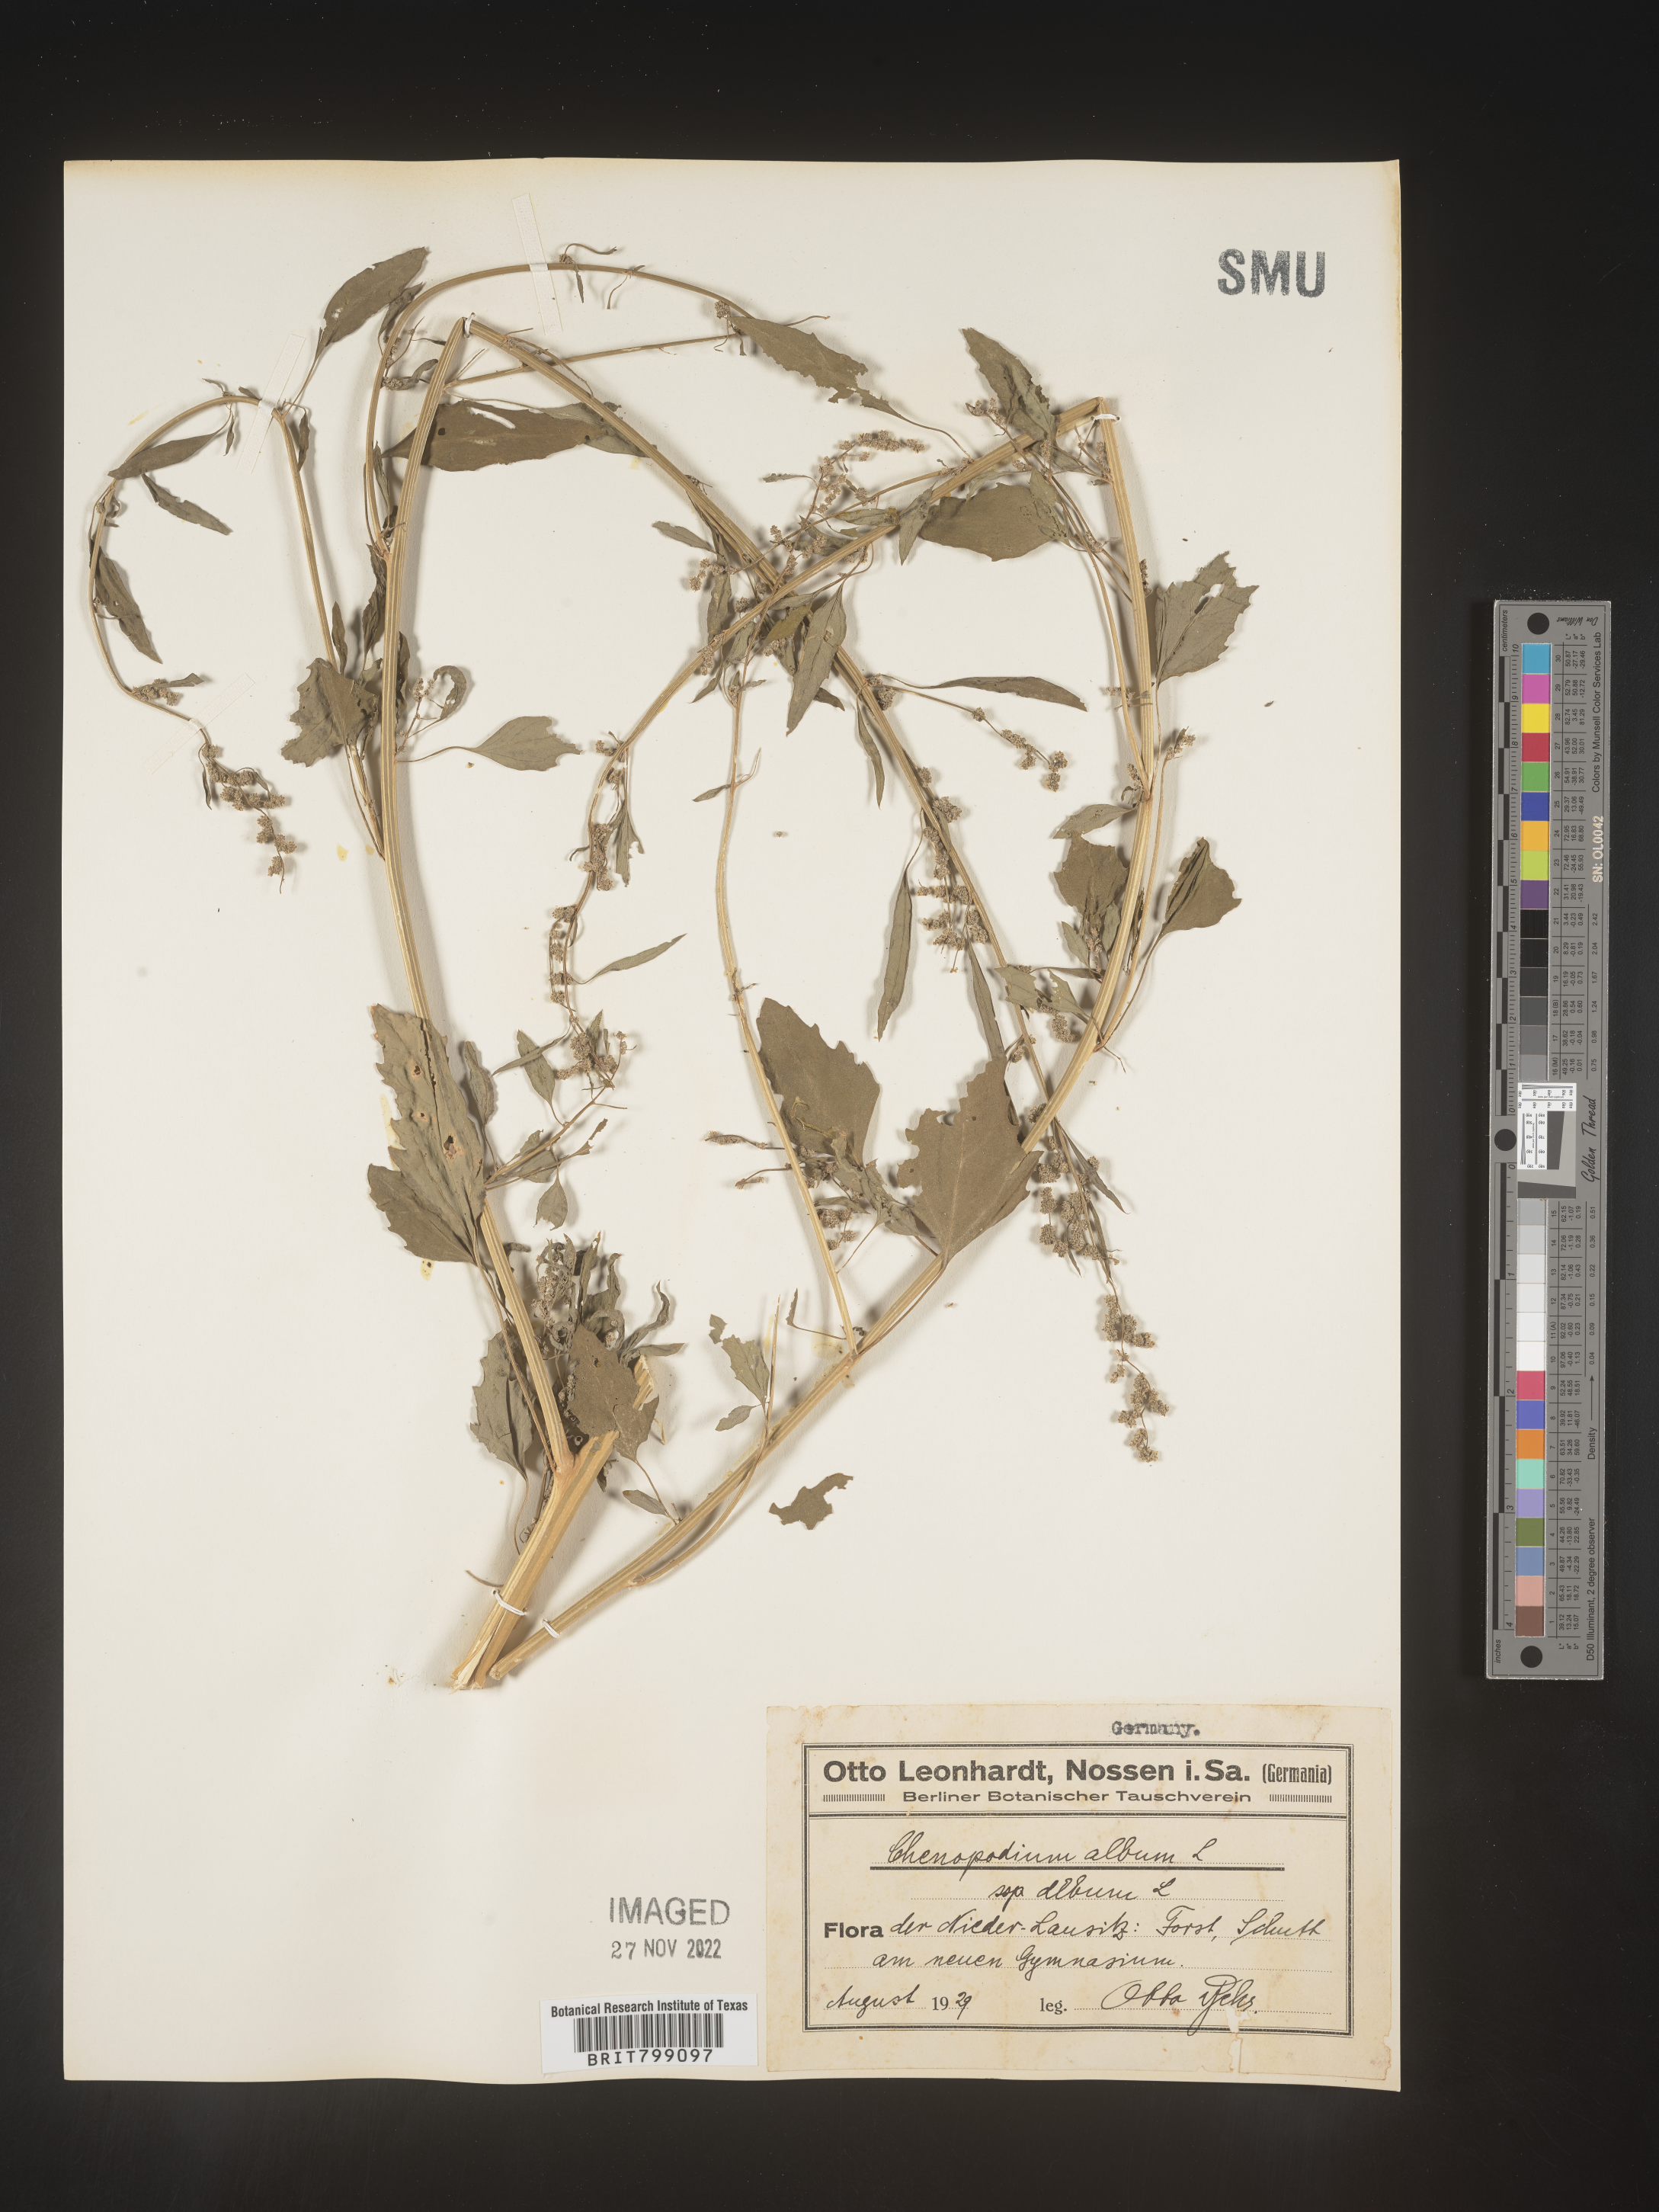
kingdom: Plantae
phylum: Tracheophyta
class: Magnoliopsida
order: Caryophyllales
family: Amaranthaceae
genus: Chenopodium
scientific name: Chenopodium album
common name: Fat-hen
